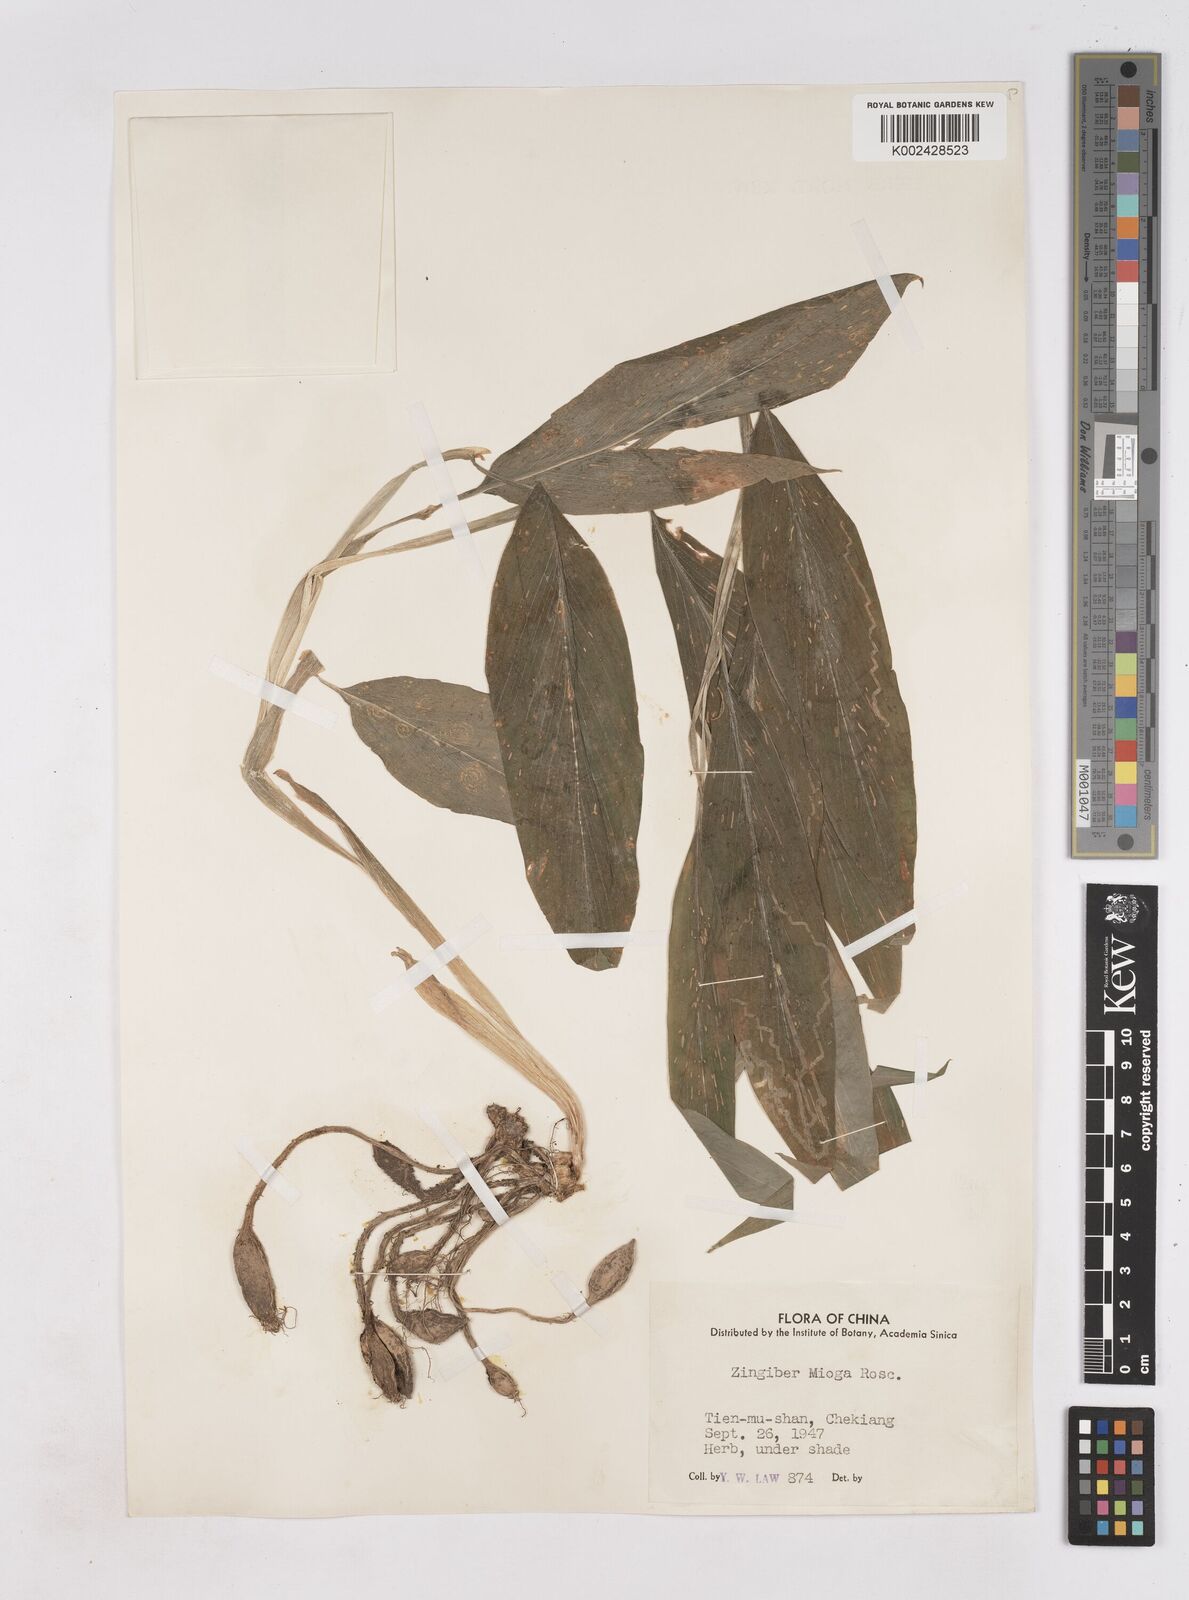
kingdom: Plantae
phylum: Tracheophyta
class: Liliopsida
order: Zingiberales
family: Zingiberaceae
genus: Zingiber
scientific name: Zingiber mioga
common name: Japanese ginger
